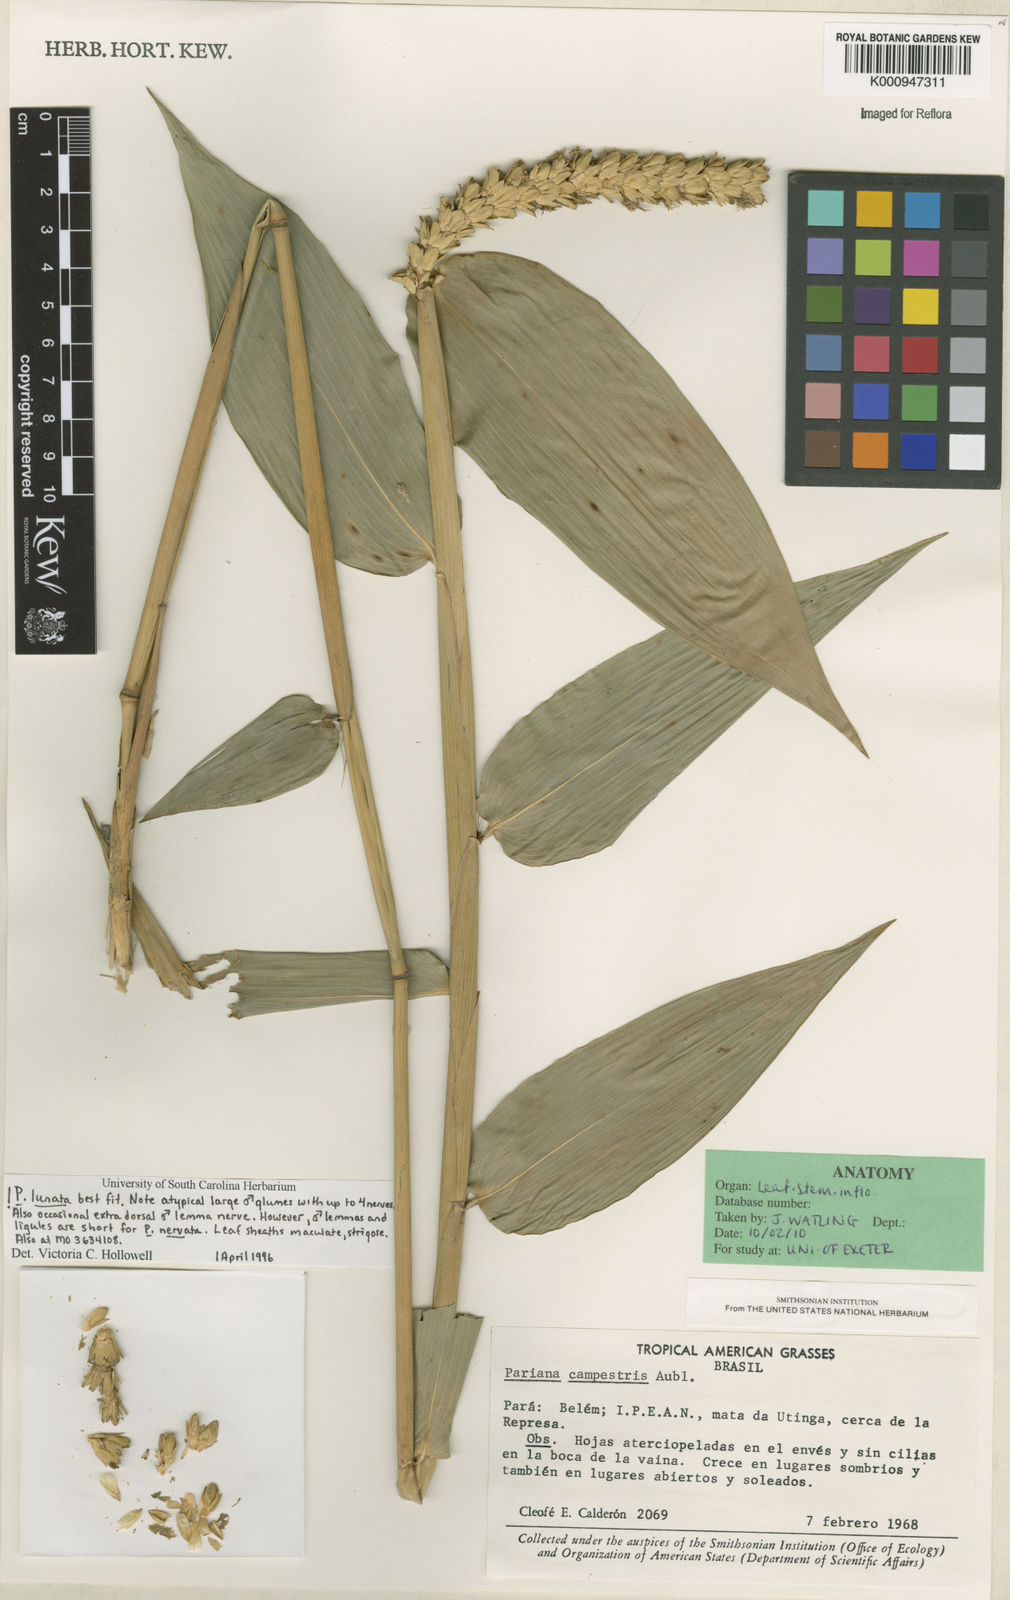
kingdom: Plantae
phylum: Tracheophyta
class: Liliopsida
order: Poales
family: Poaceae
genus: Pariana
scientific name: Pariana lunata
